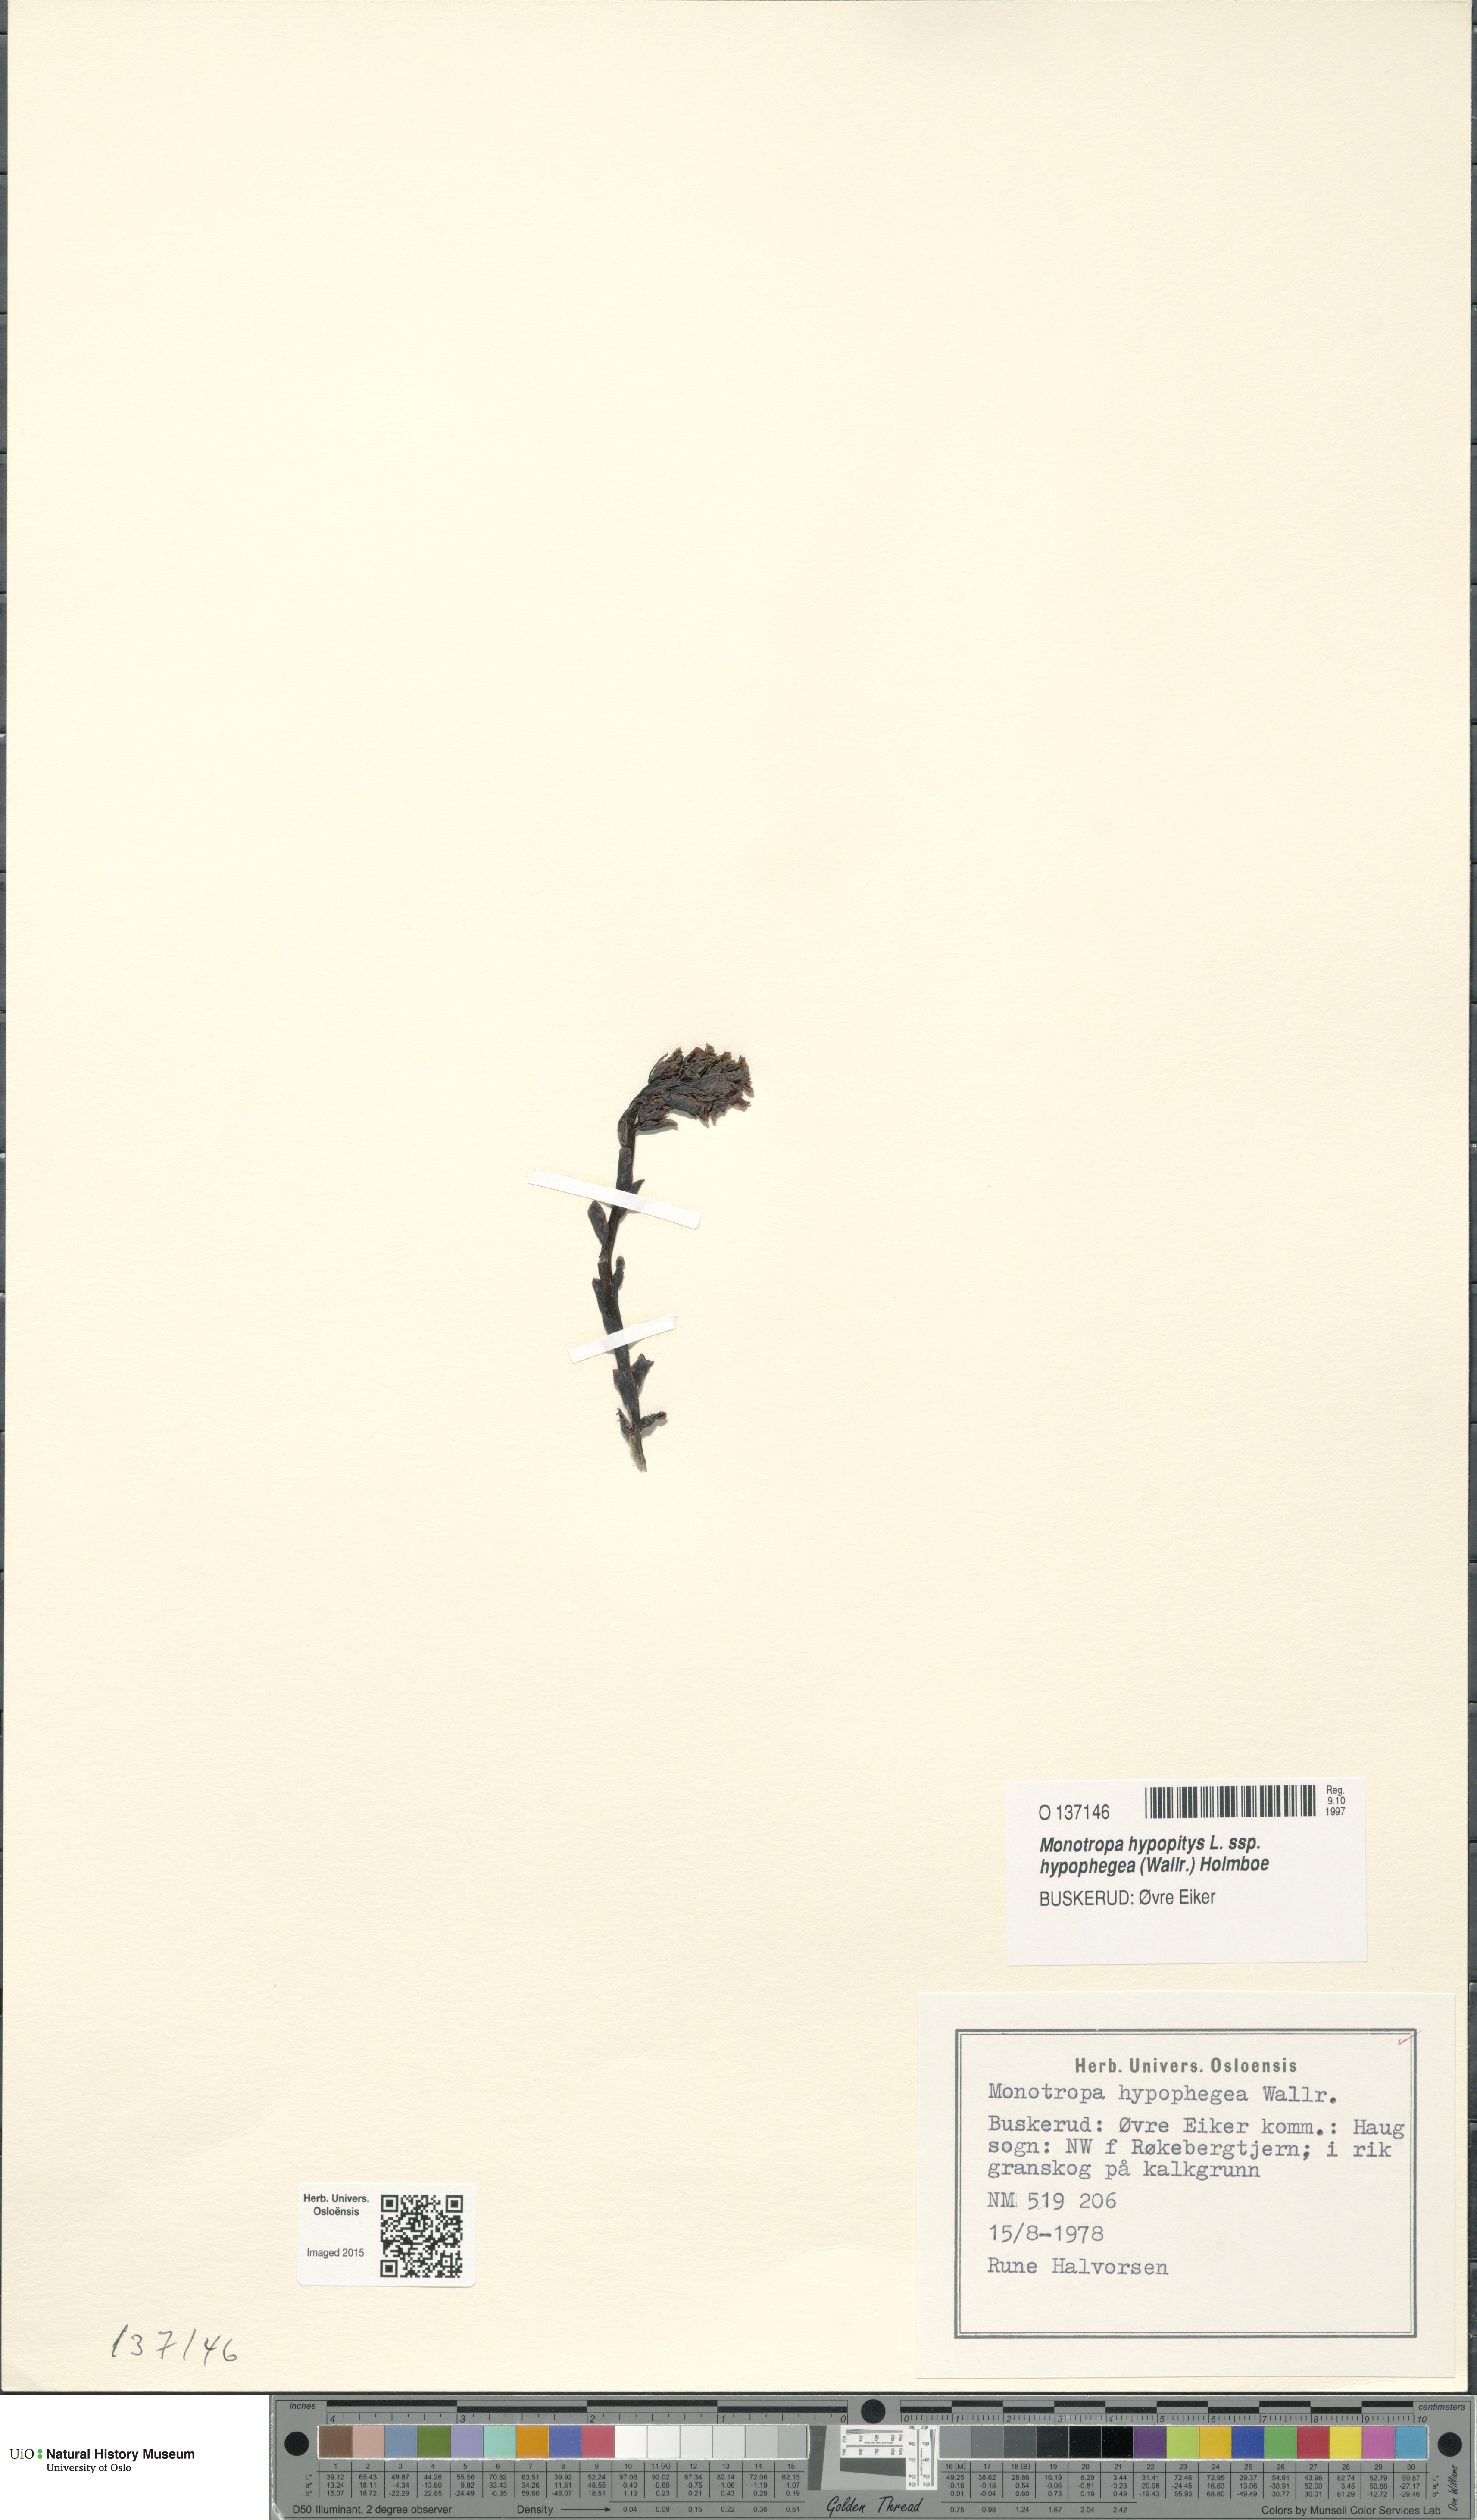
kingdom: Plantae
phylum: Tracheophyta
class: Magnoliopsida
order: Ericales
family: Ericaceae
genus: Hypopitys
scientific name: Hypopitys hypophegea
